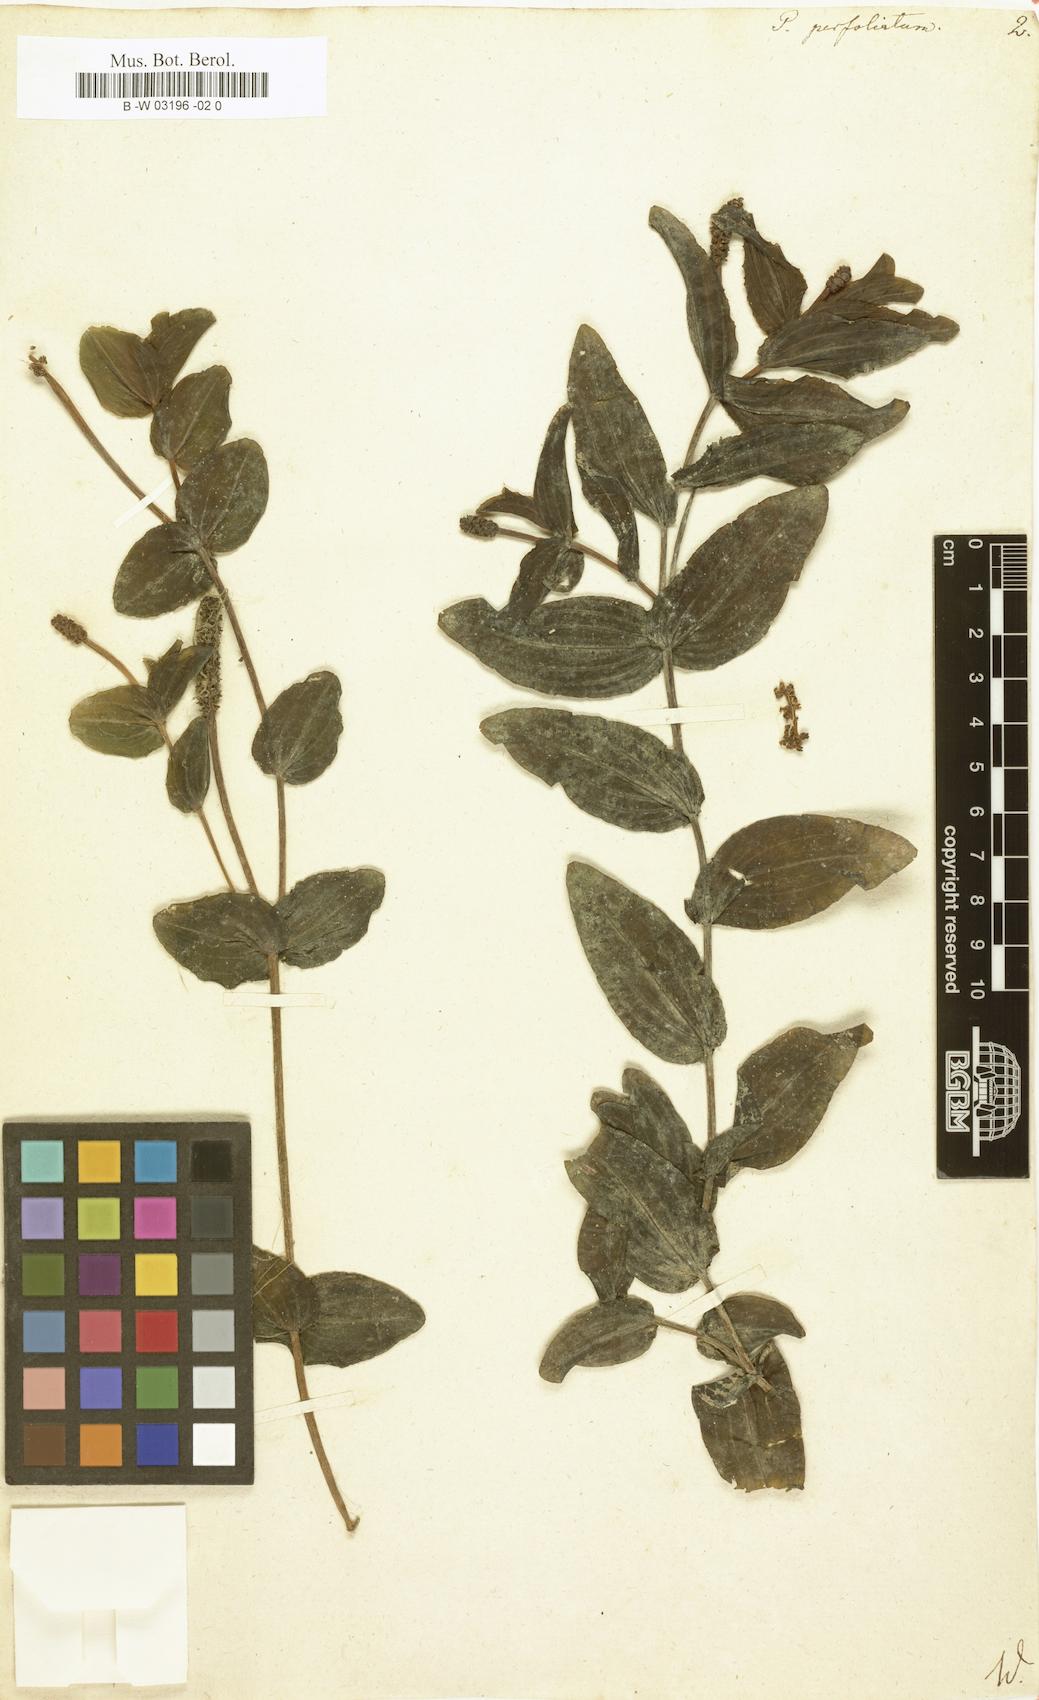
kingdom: Plantae
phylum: Tracheophyta
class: Liliopsida
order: Alismatales
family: Potamogetonaceae
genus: Potamogeton
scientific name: Potamogeton perfoliatus
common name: Perfoliate pondweed
